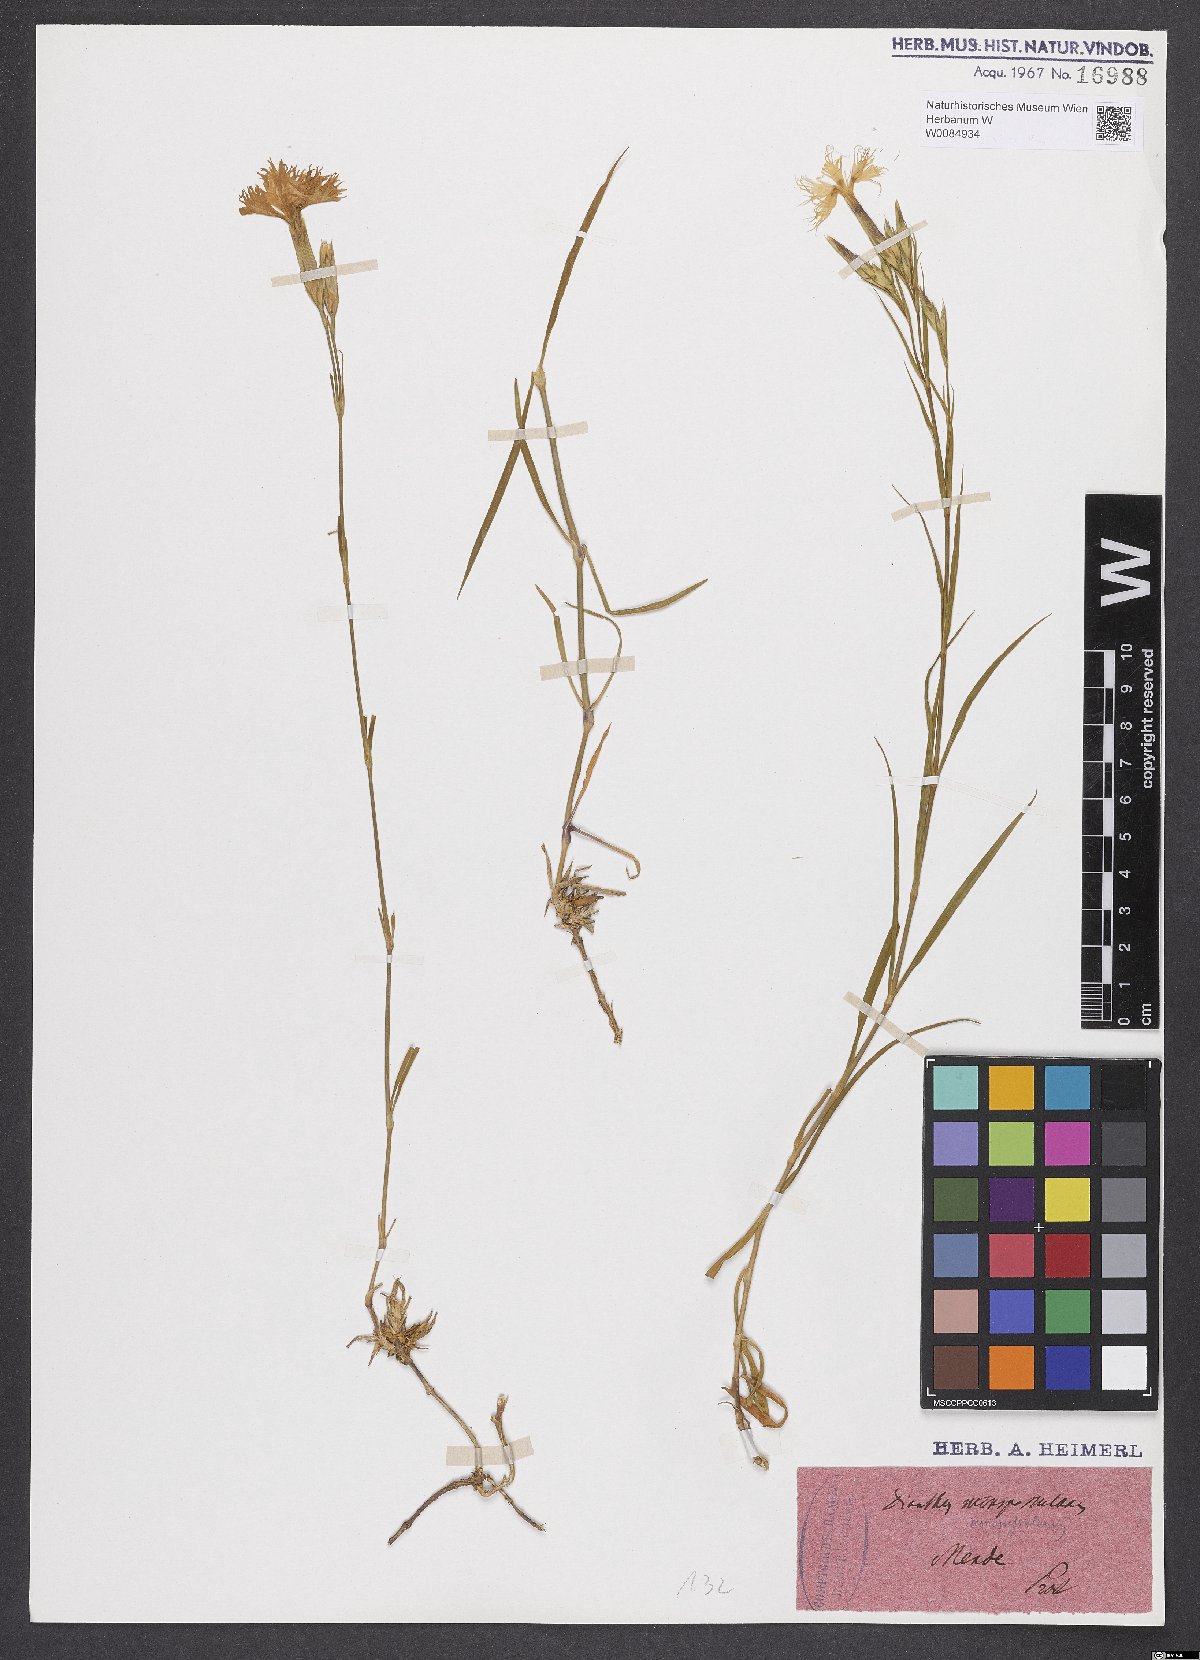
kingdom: Plantae
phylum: Tracheophyta
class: Magnoliopsida
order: Caryophyllales
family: Caryophyllaceae
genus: Dianthus
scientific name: Dianthus hyssopifolius
